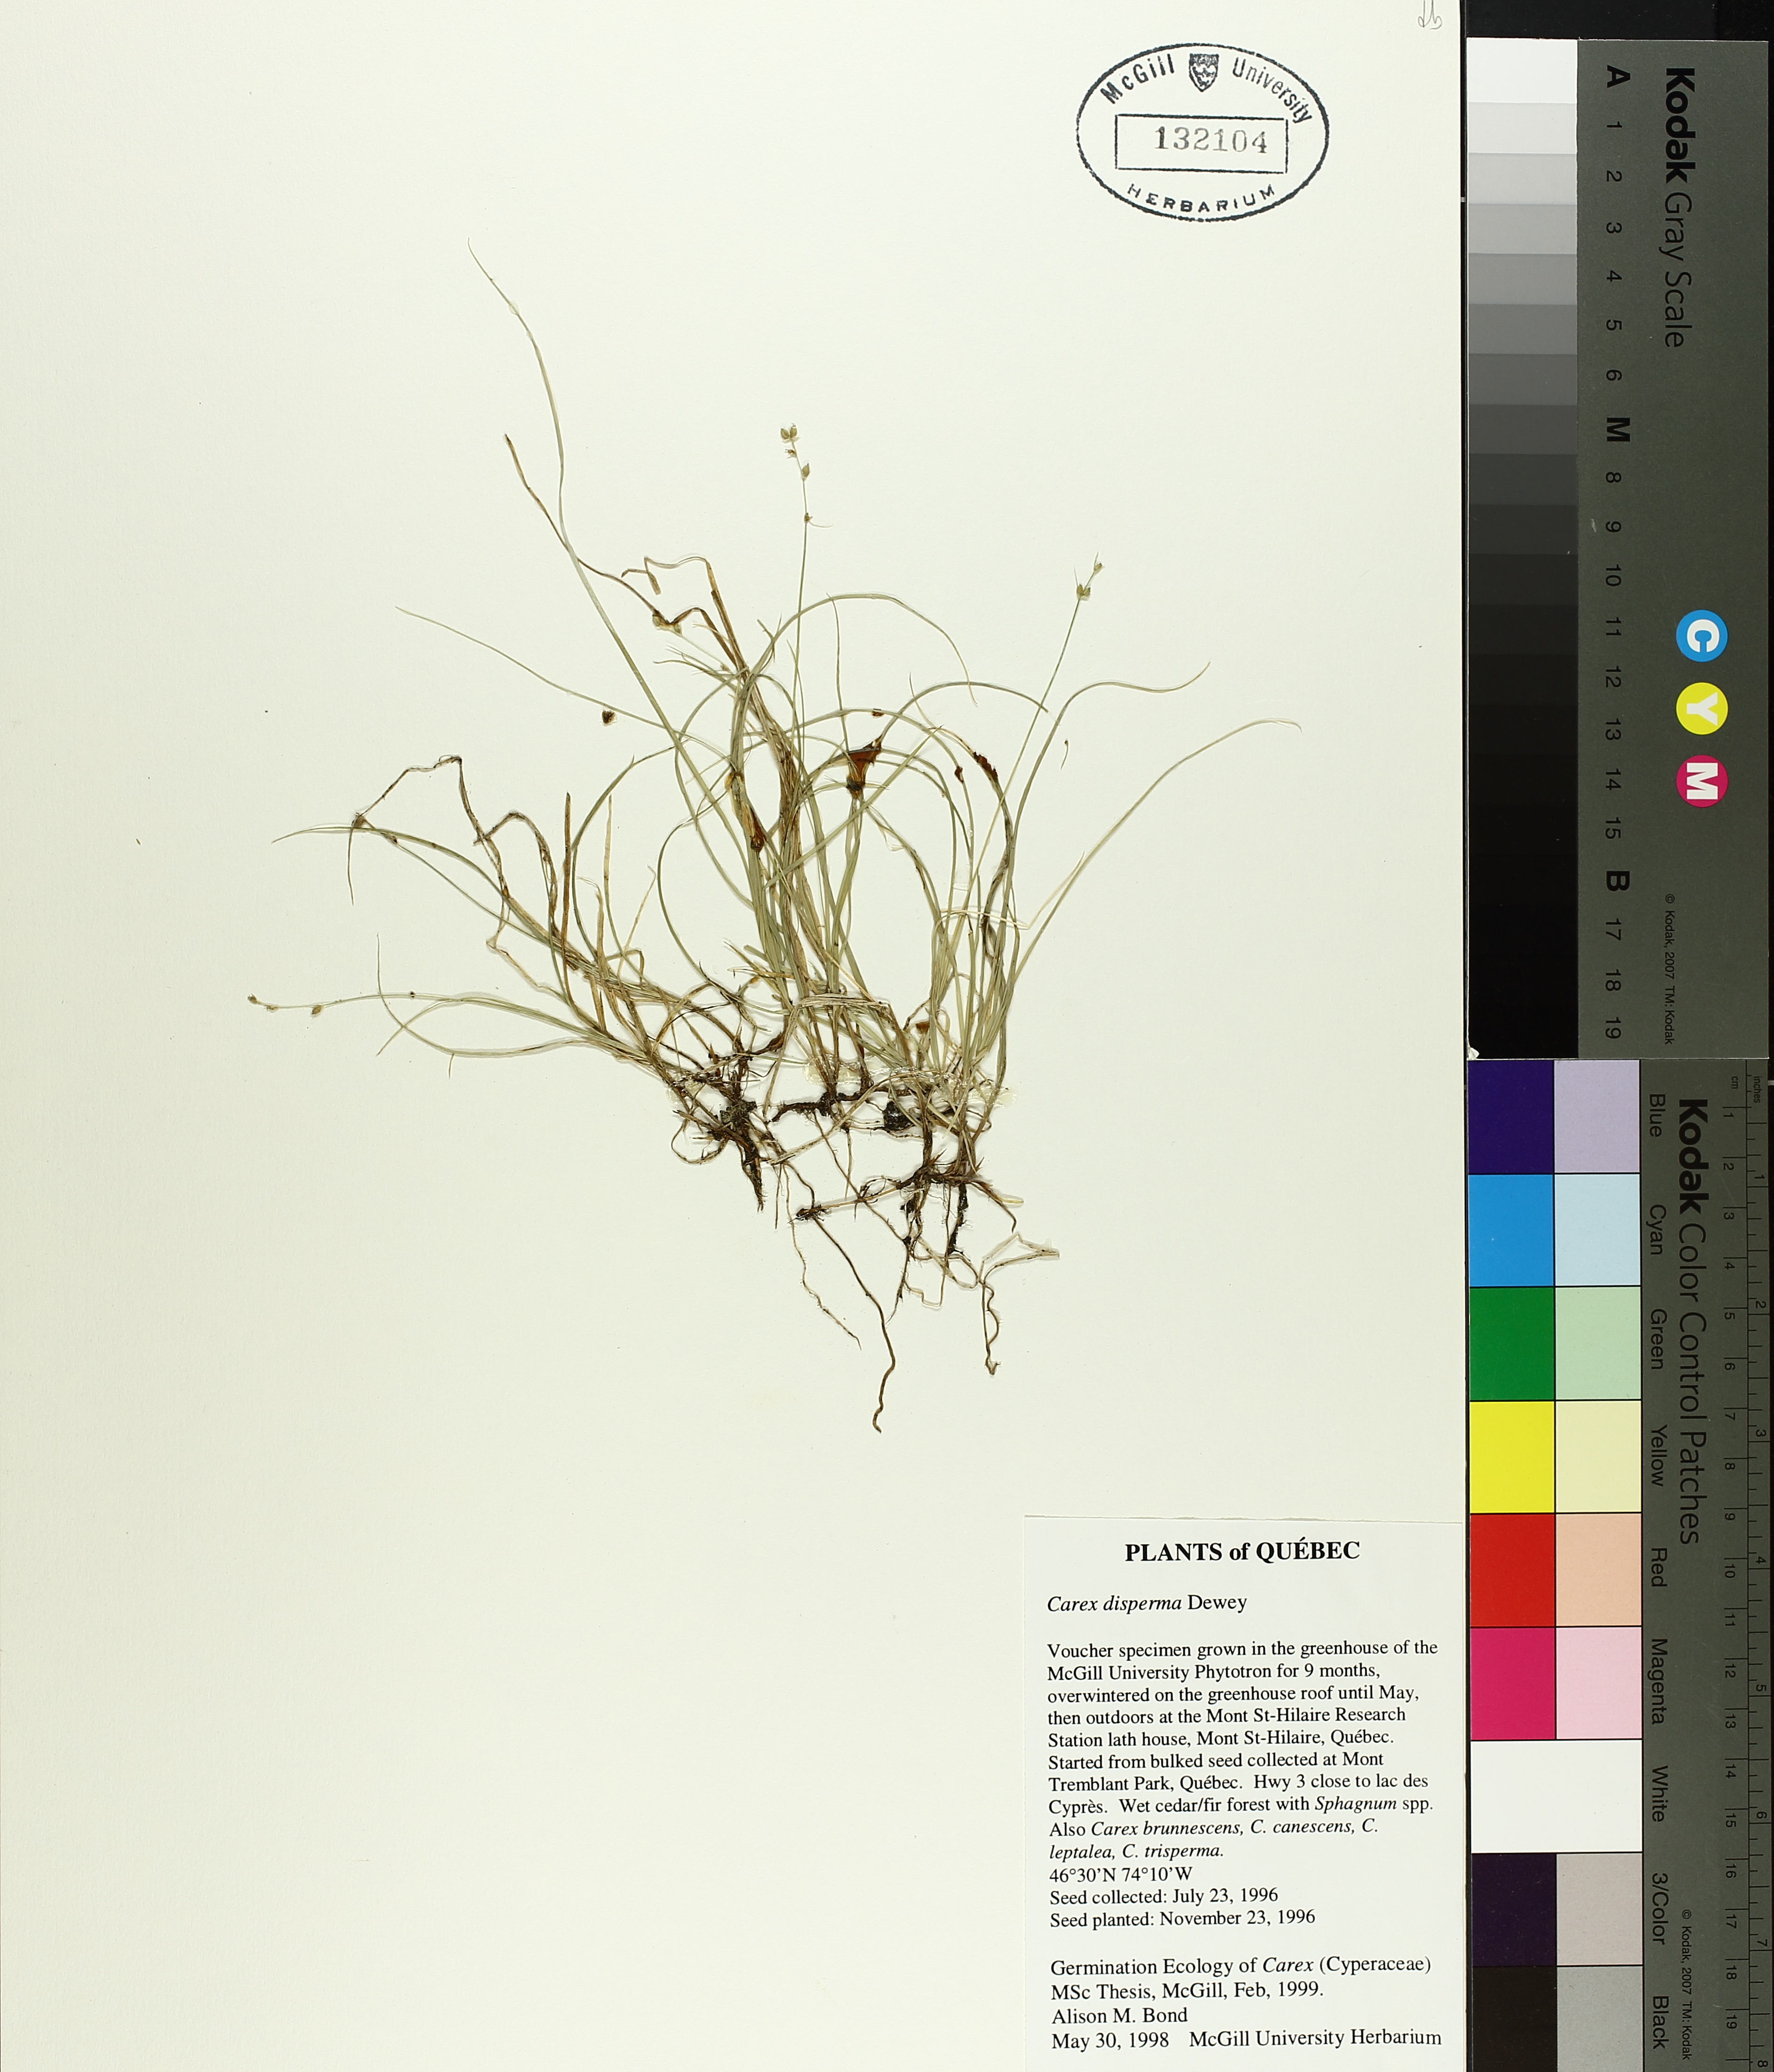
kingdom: Plantae
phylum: Tracheophyta
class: Liliopsida
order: Poales
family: Cyperaceae
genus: Carex
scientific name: Carex disperma
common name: Short-leaved sedge
